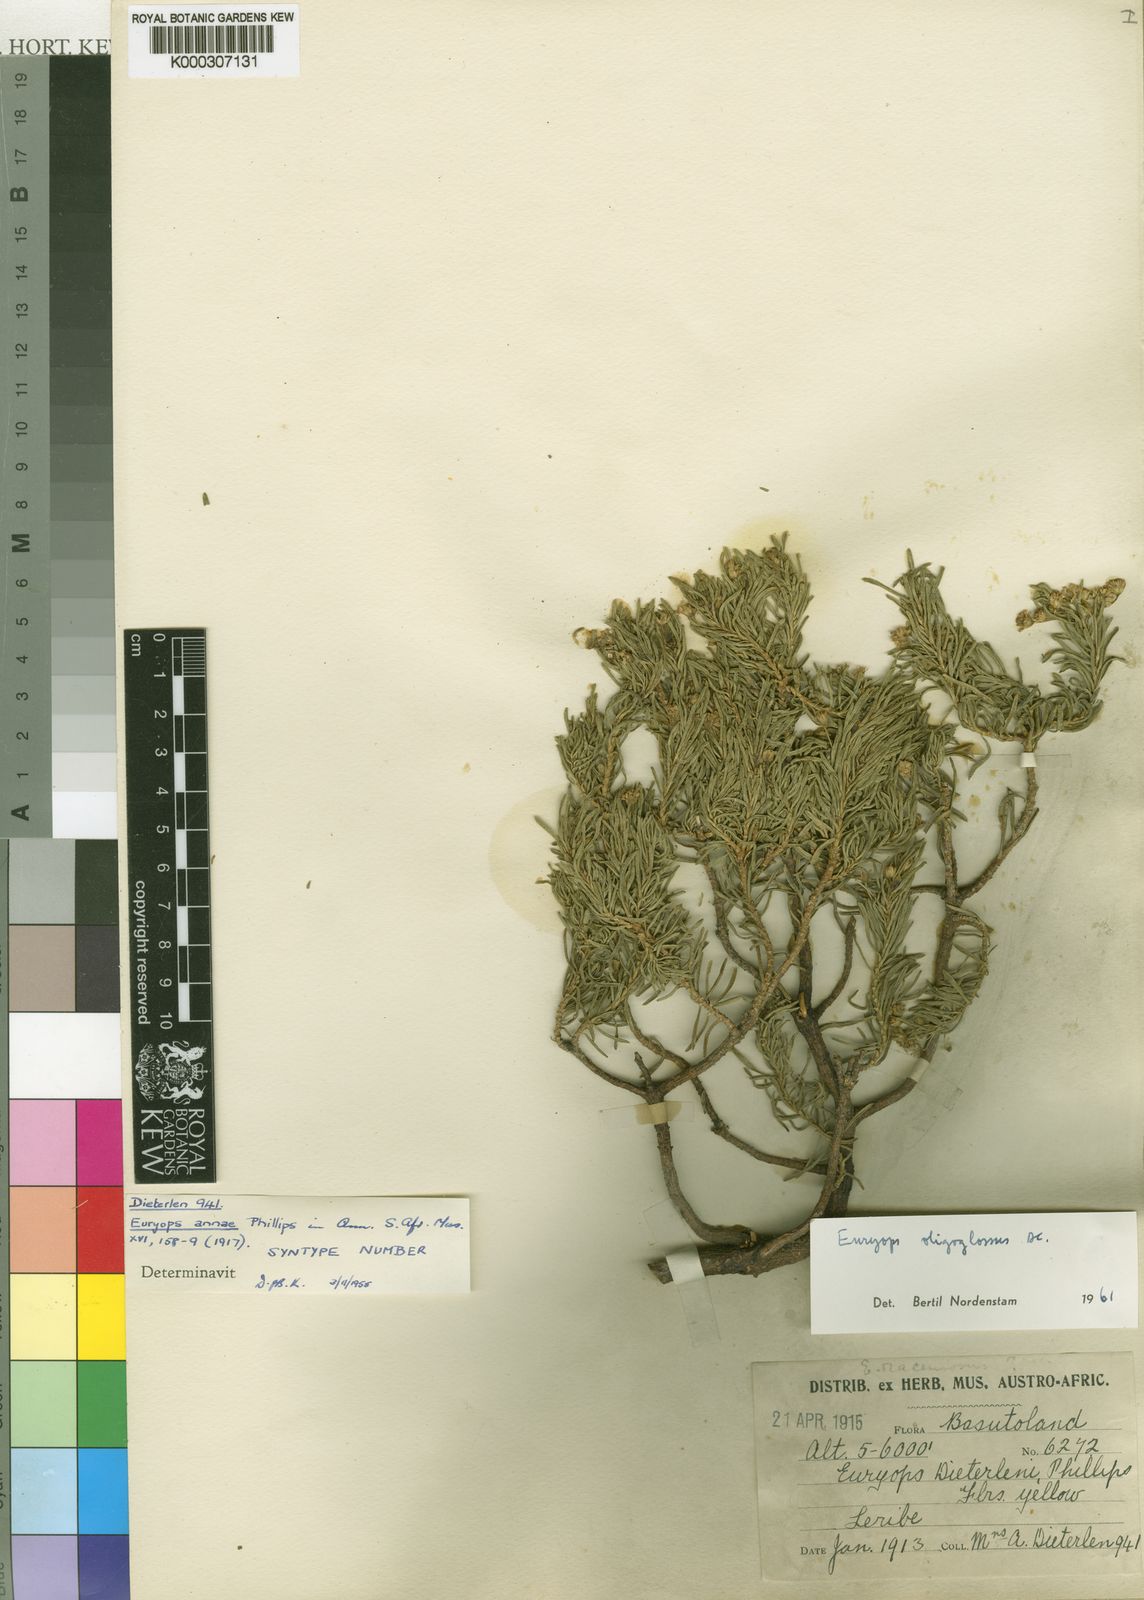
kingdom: Plantae
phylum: Tracheophyta
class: Magnoliopsida
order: Asterales
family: Asteraceae
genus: Euryops
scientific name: Euryops oligoglossus
